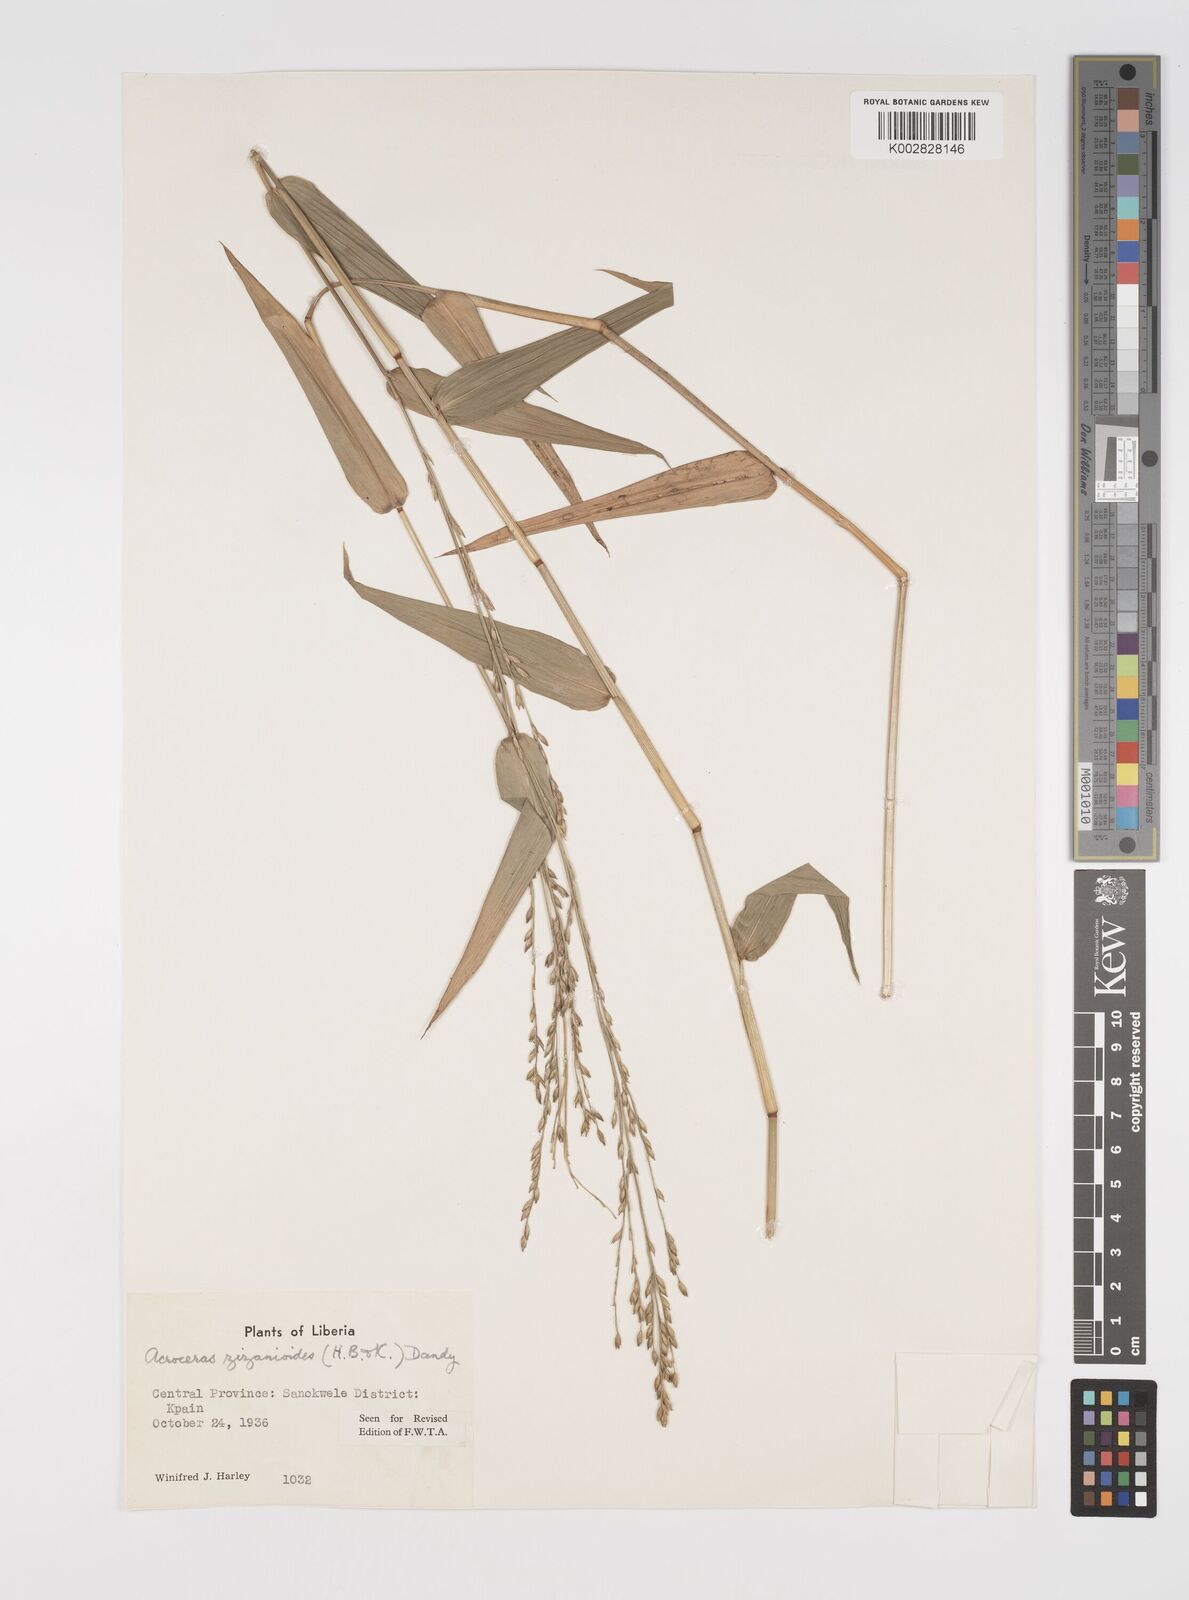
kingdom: Plantae
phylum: Tracheophyta
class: Liliopsida
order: Poales
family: Poaceae
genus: Acroceras
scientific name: Acroceras zizanioides
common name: Oat grass
